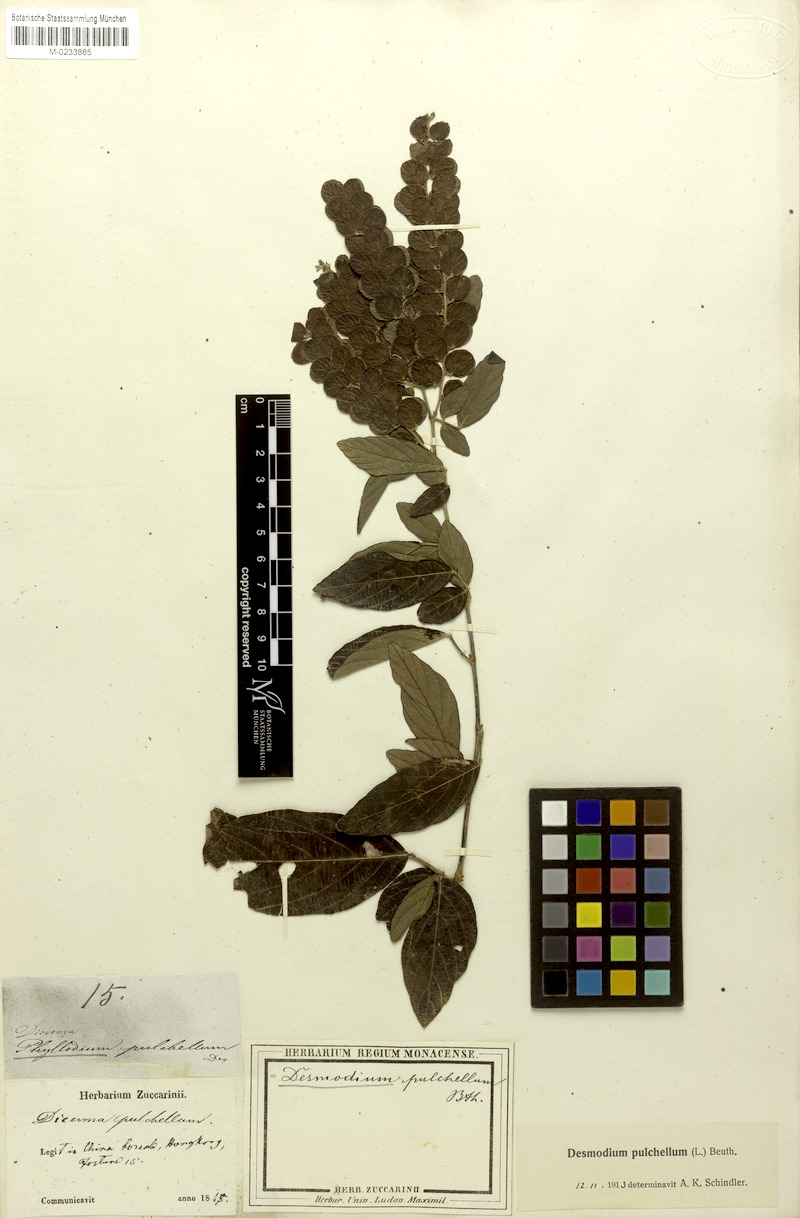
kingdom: Plantae
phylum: Tracheophyta
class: Magnoliopsida
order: Fabales
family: Fabaceae
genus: Phyllodium
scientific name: Phyllodium pulchellum
